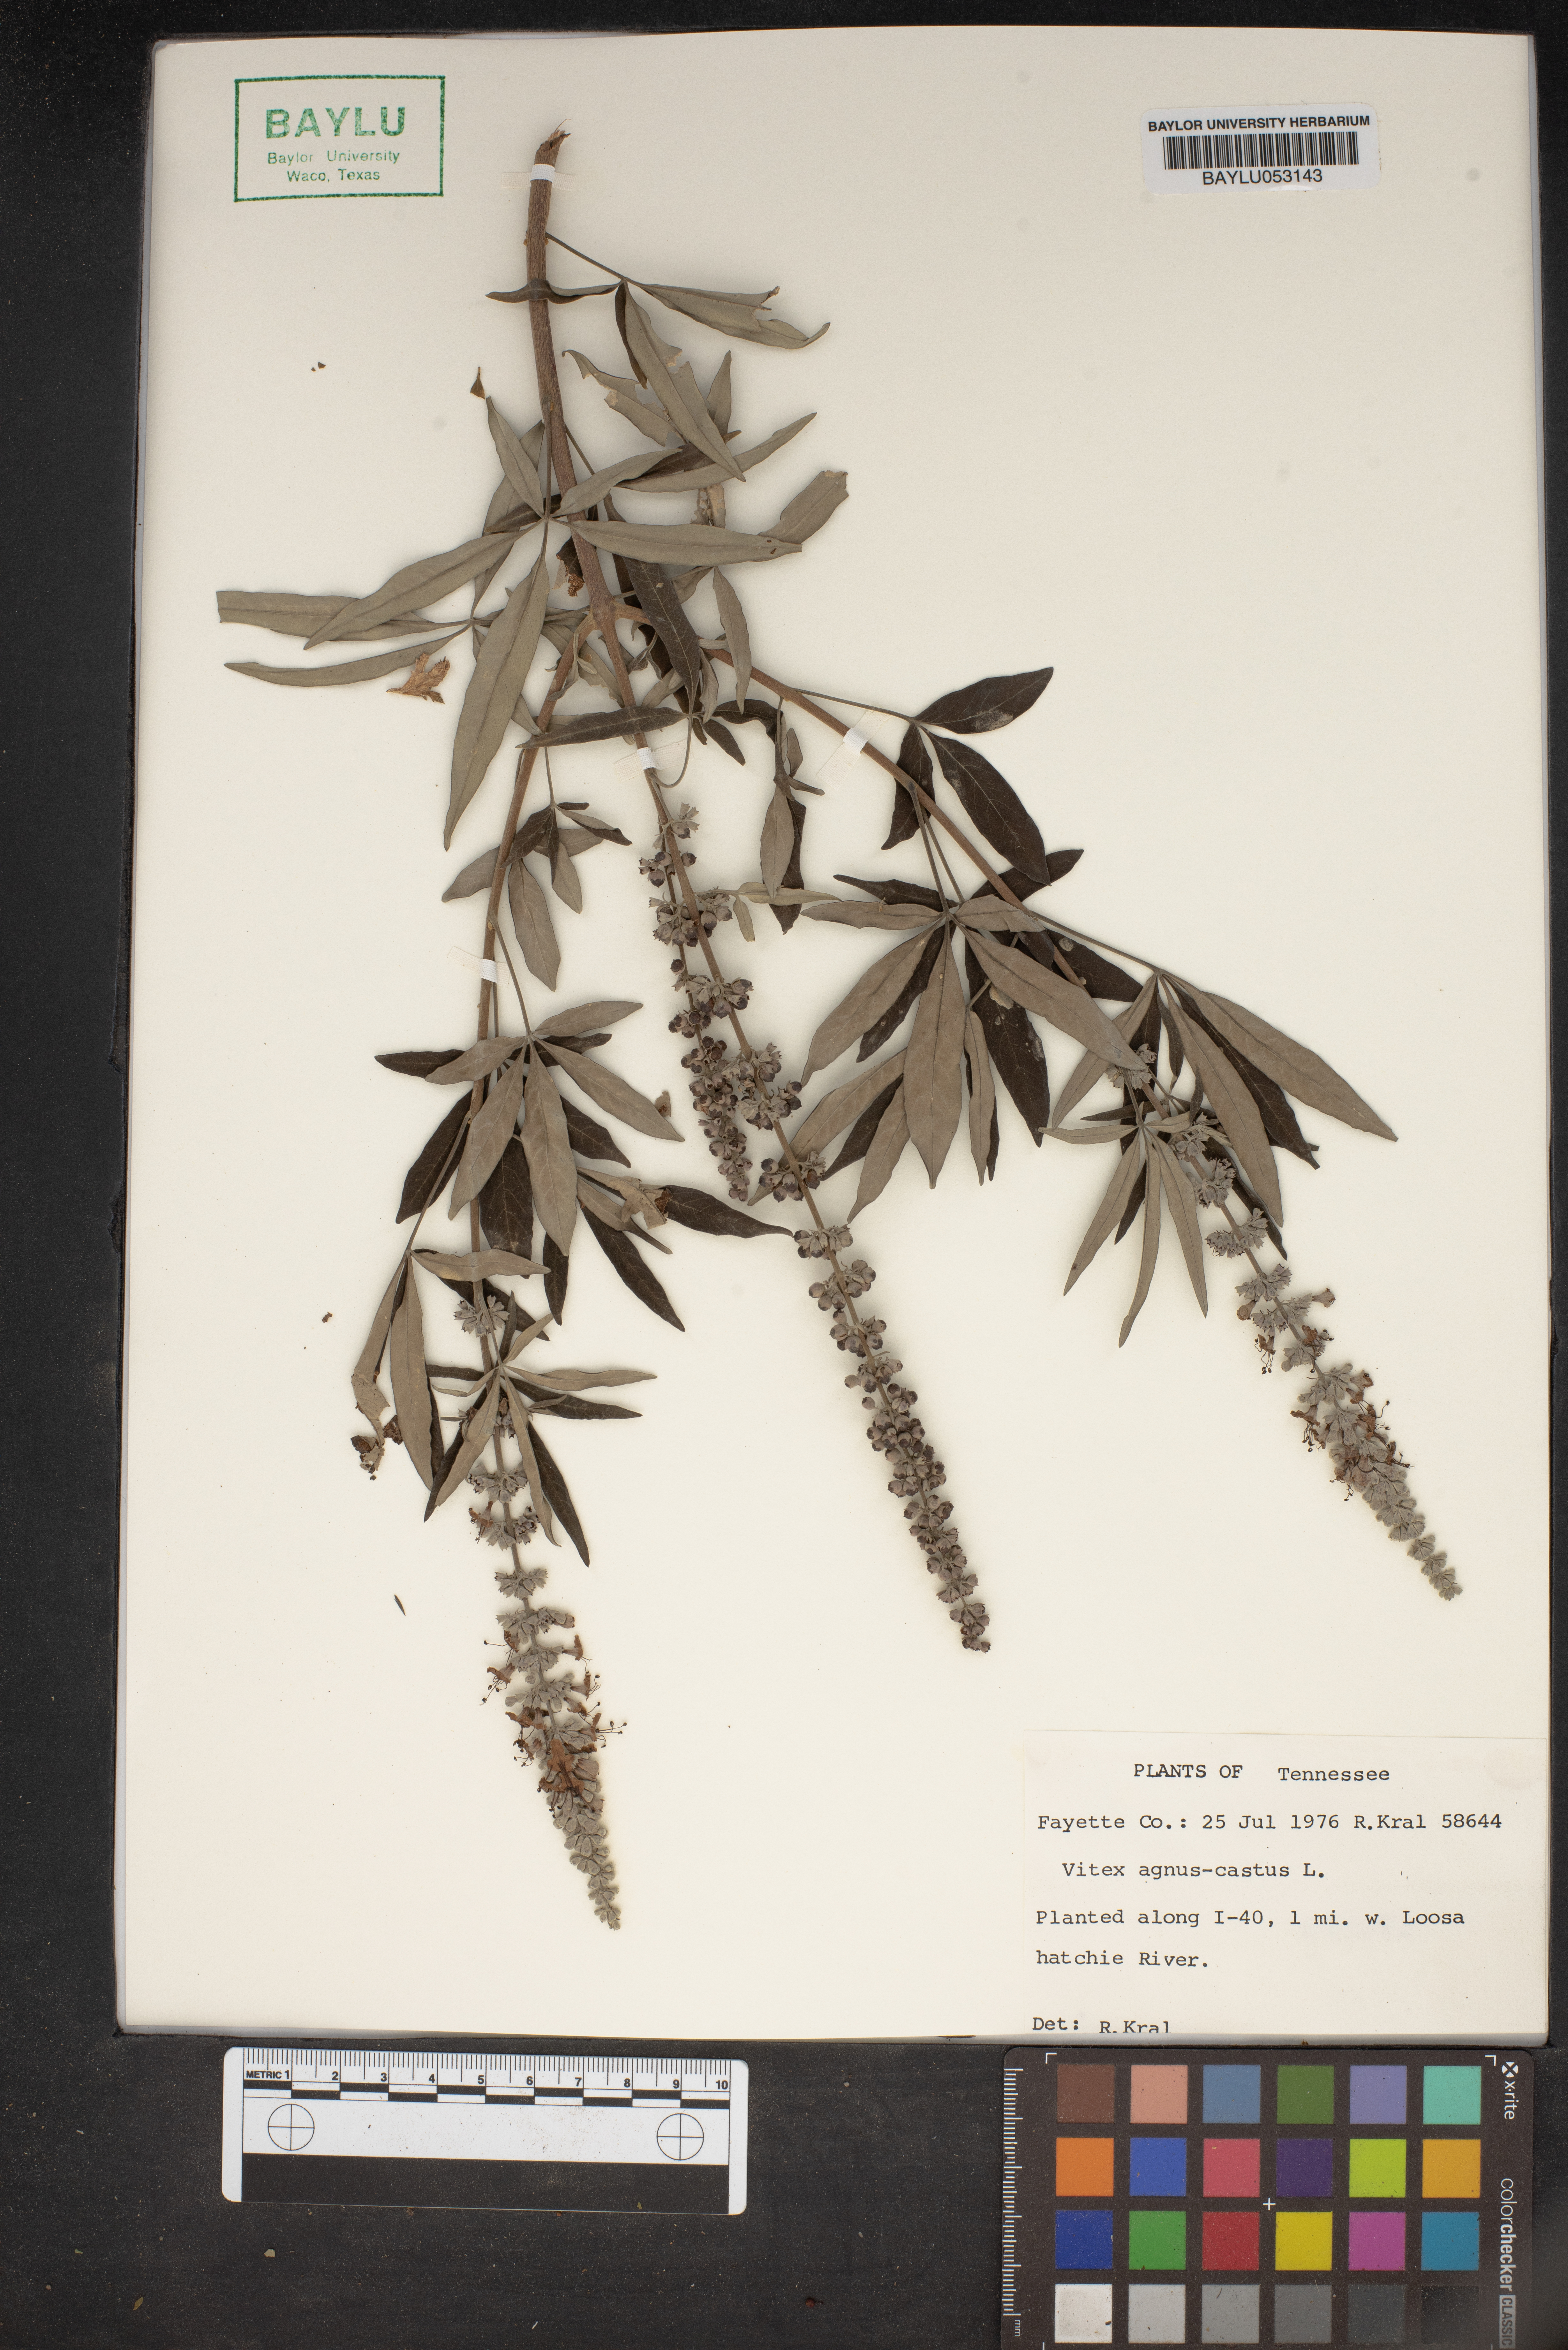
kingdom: Plantae
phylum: Tracheophyta
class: Magnoliopsida
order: Lamiales
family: Lamiaceae
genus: Vitex
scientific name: Vitex agnus-castus
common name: Chasteberry
